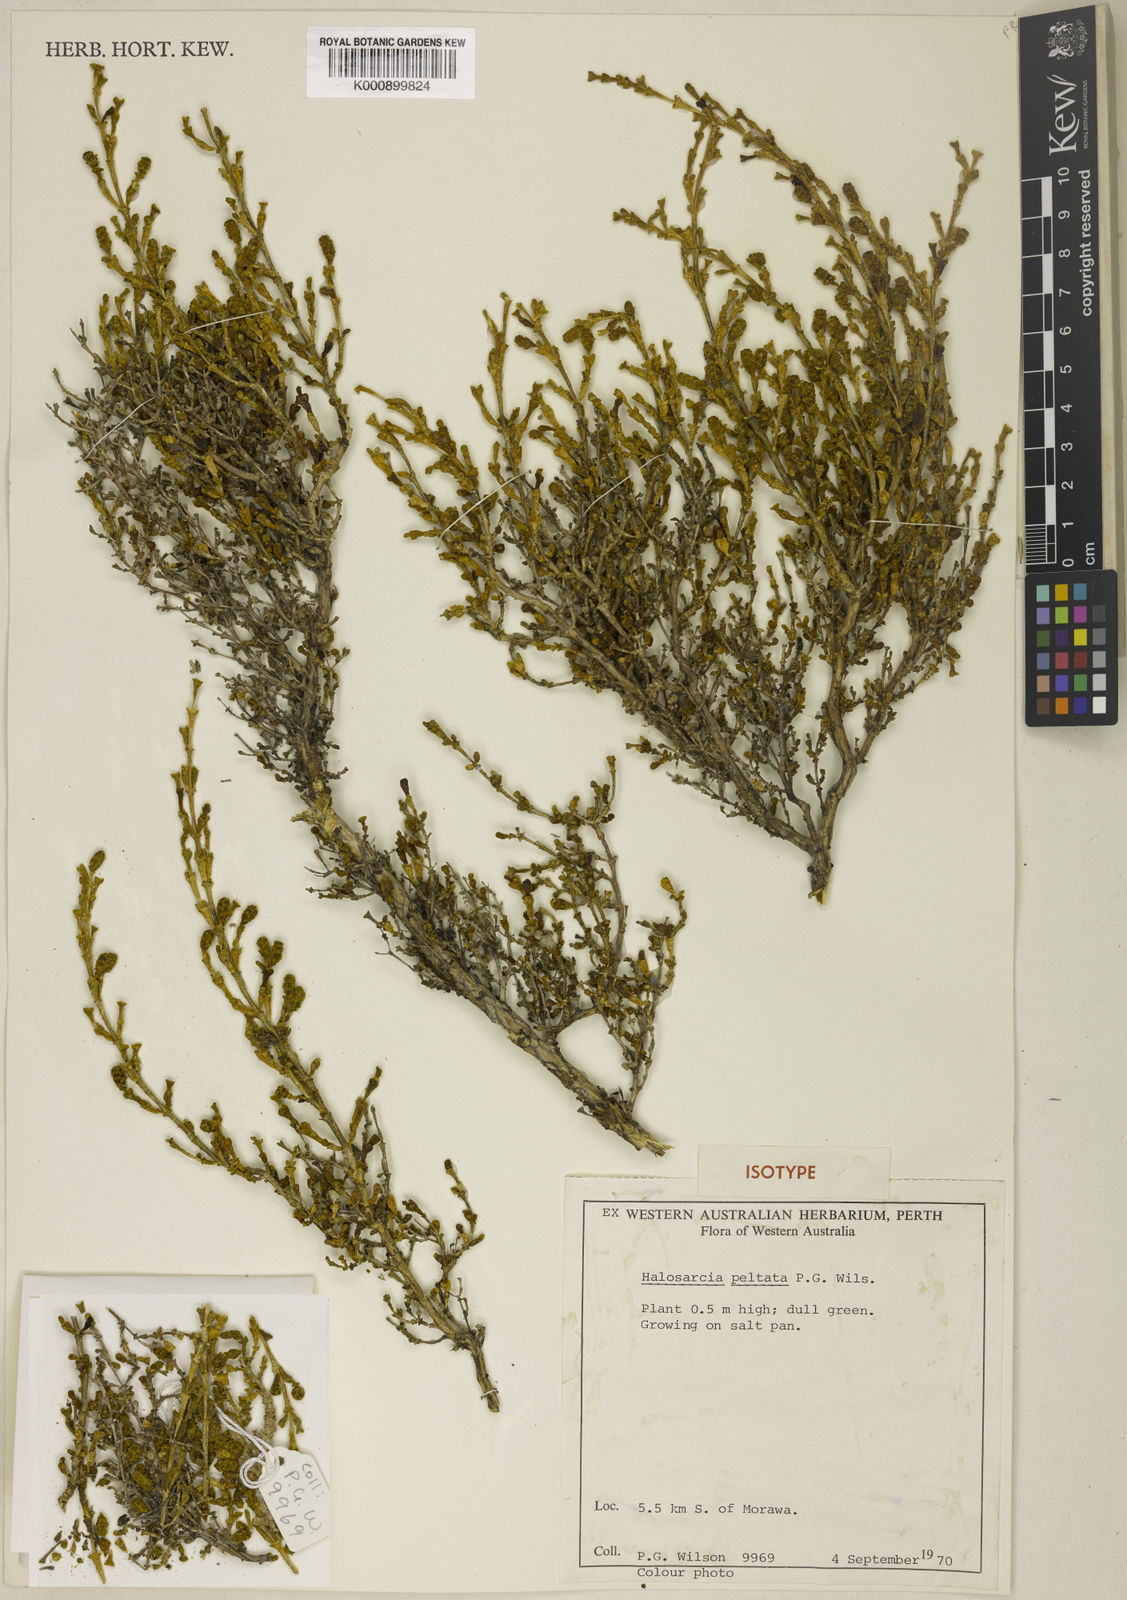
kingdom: Plantae
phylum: Tracheophyta
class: Magnoliopsida
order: Caryophyllales
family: Amaranthaceae
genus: Tecticornia
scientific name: Tecticornia peltata
